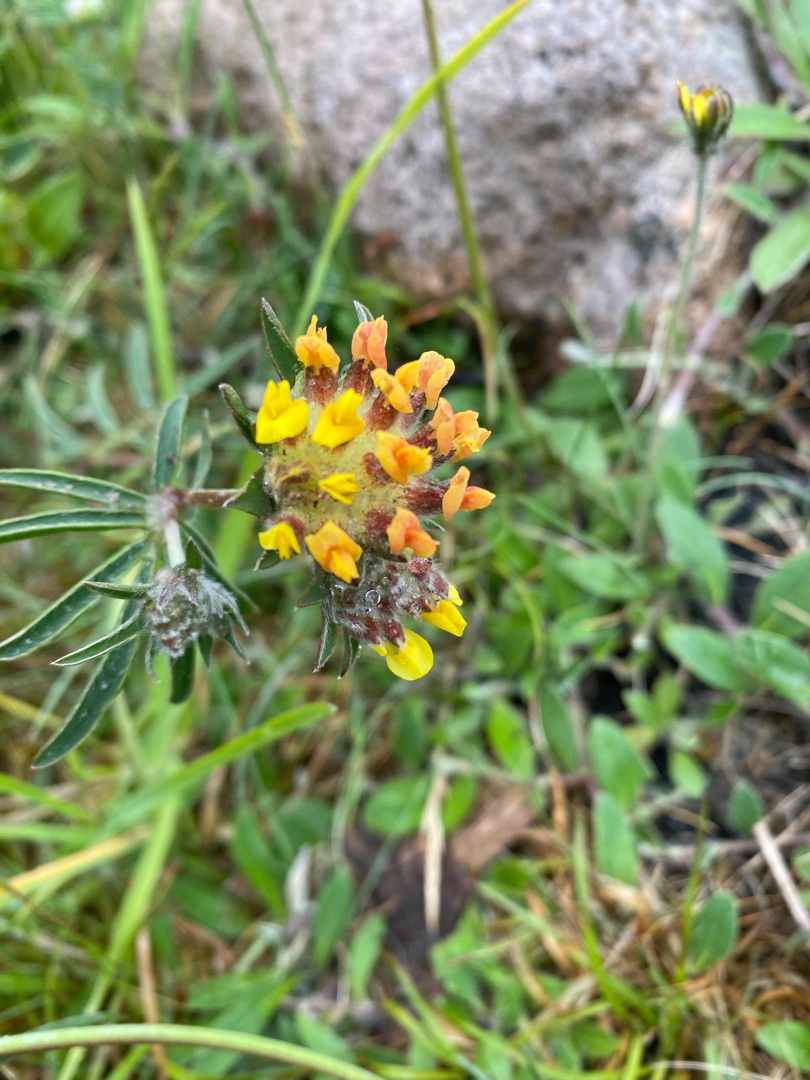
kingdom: Plantae
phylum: Tracheophyta
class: Magnoliopsida
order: Fabales
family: Fabaceae
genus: Anthyllis
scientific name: Anthyllis vulneraria
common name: Rundbælg
